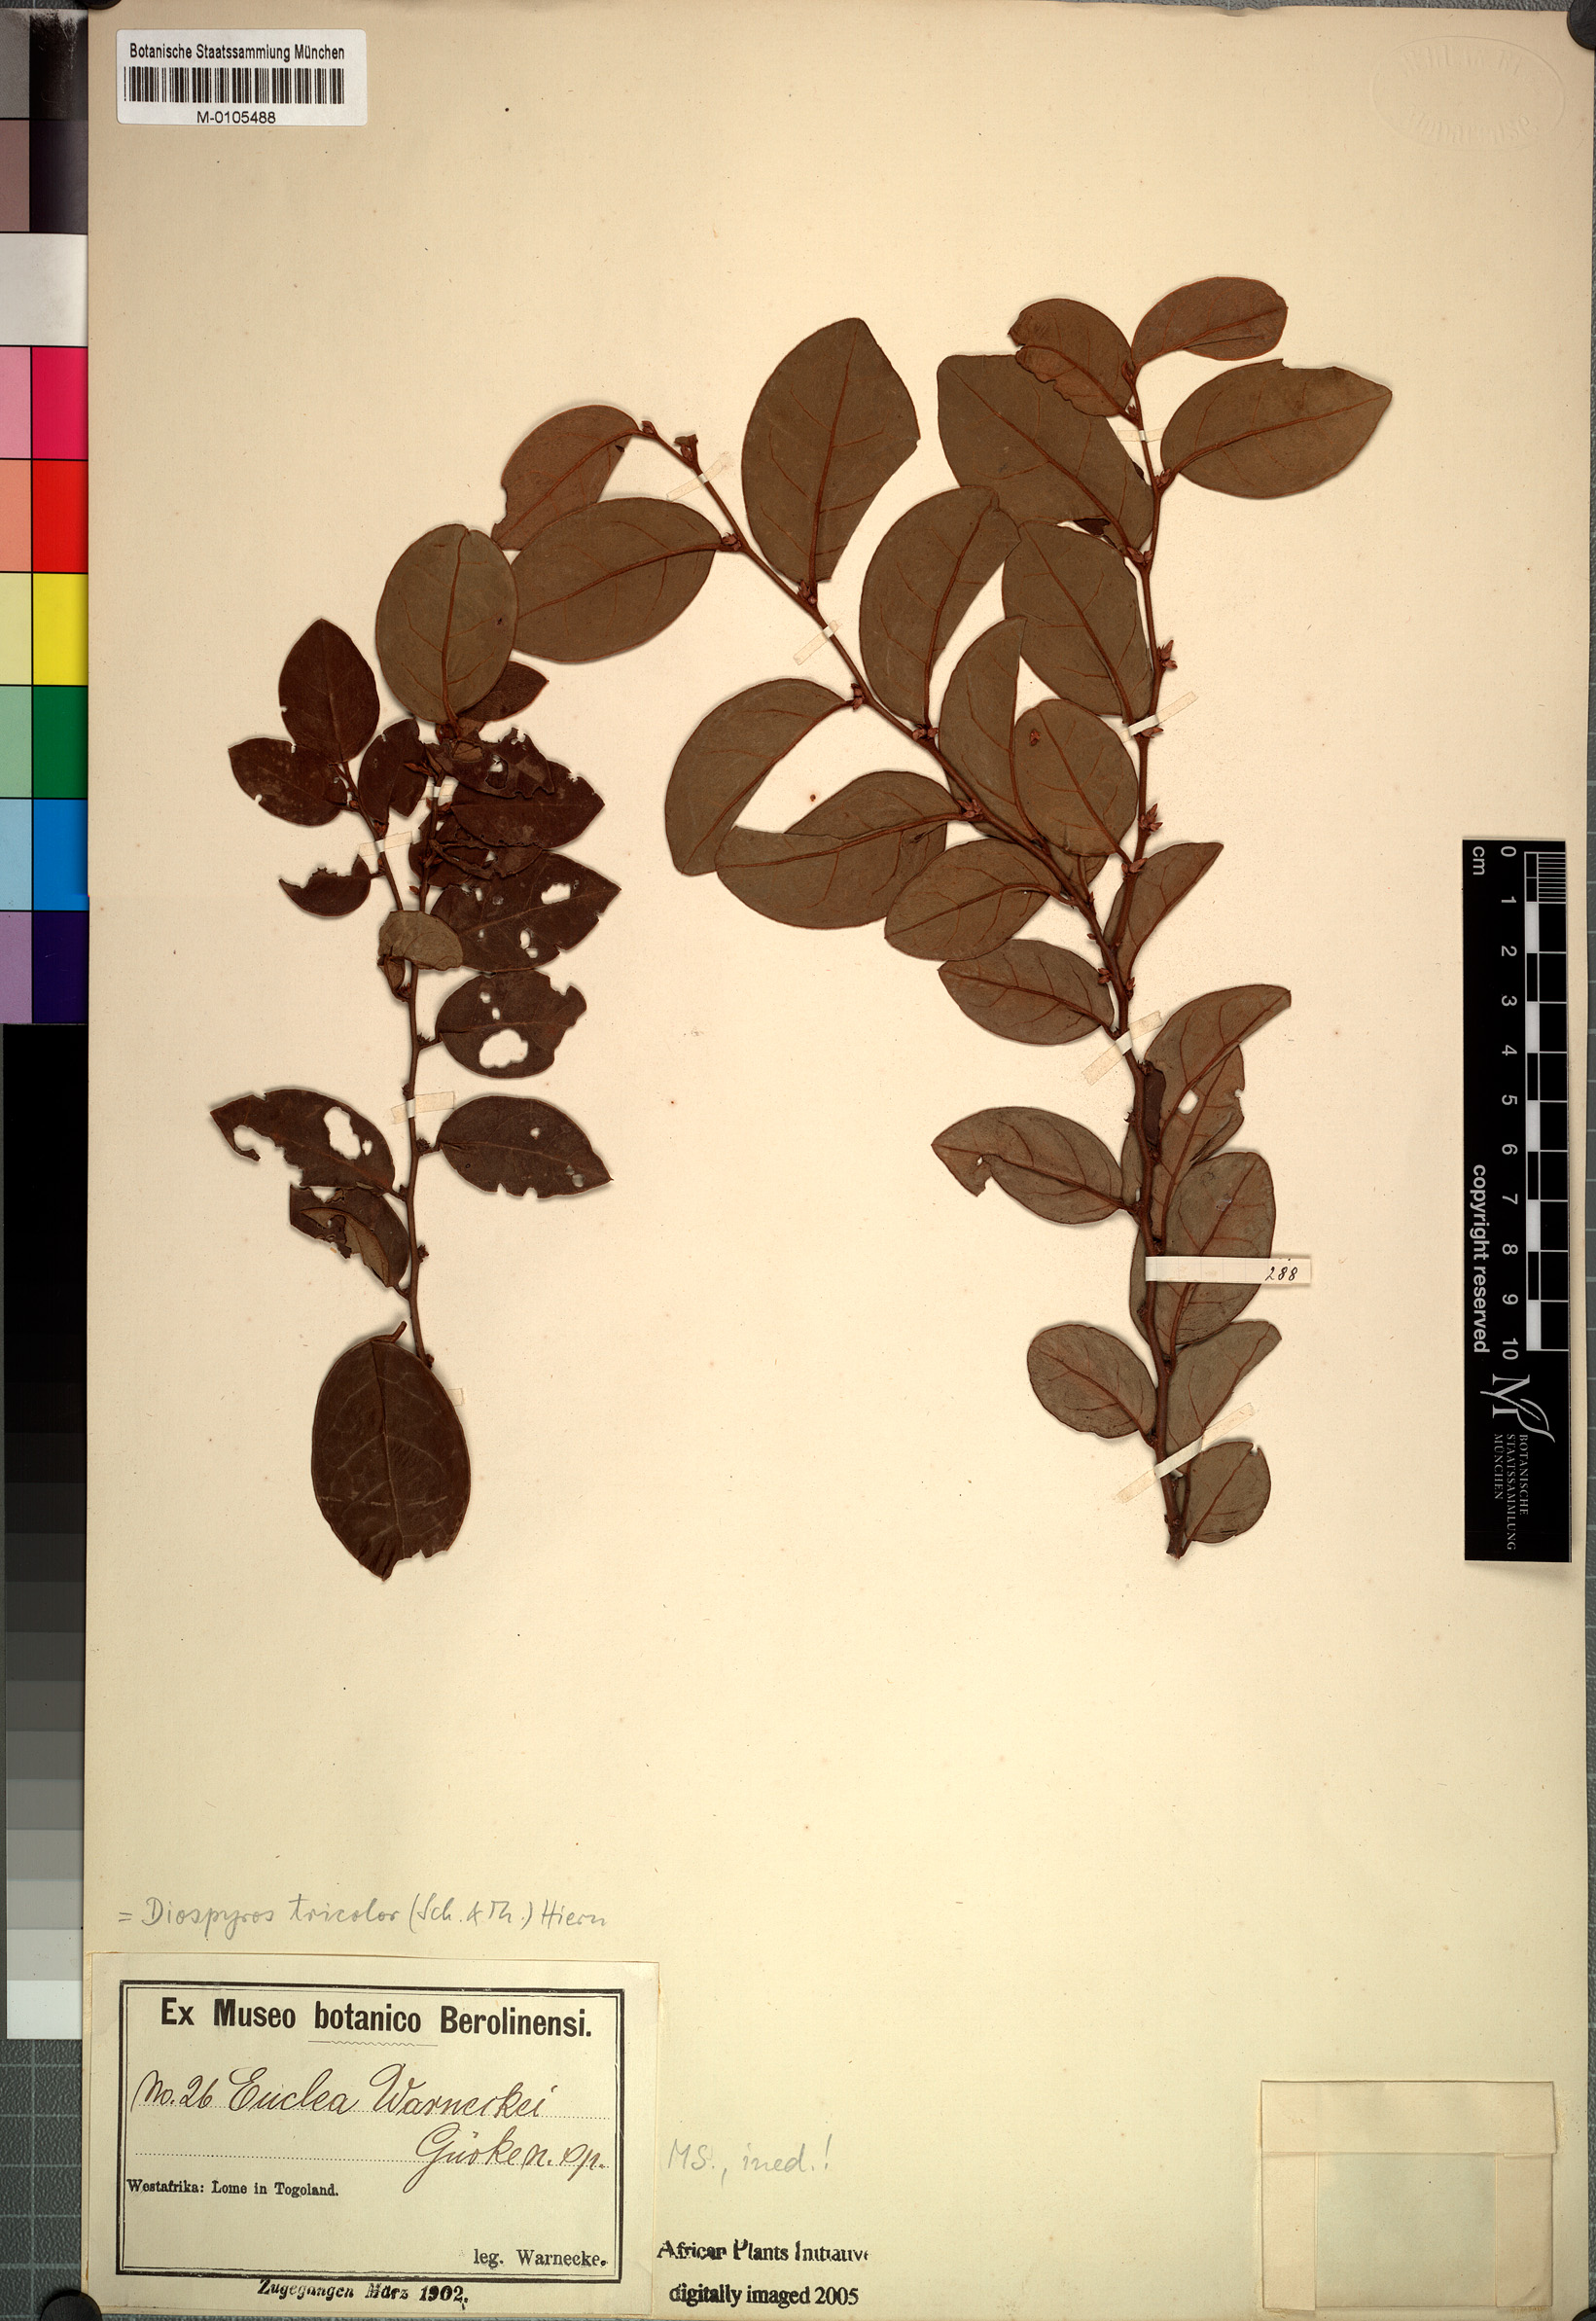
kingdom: Plantae
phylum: Tracheophyta
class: Magnoliopsida
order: Ericales
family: Ebenaceae
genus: Diospyros
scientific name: Diospyros tricolor
